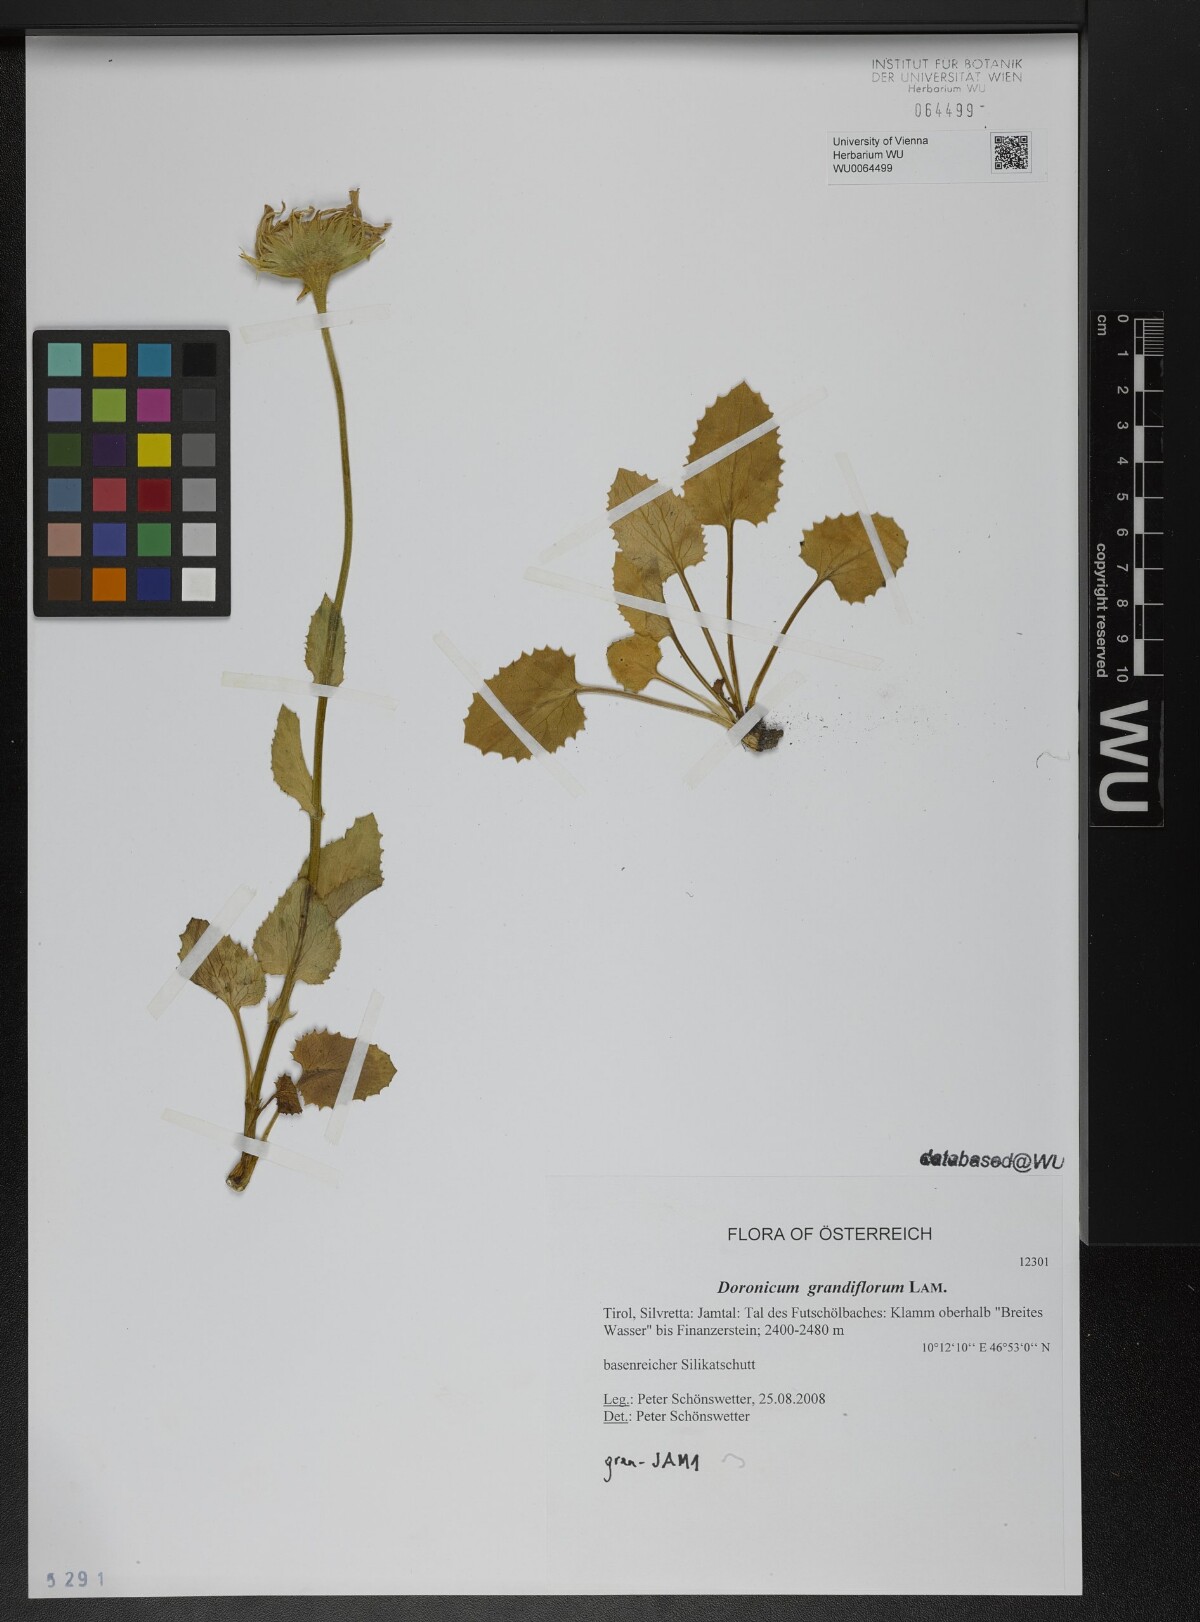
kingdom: Plantae
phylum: Tracheophyta
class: Magnoliopsida
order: Asterales
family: Asteraceae
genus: Doronicum
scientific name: Doronicum grandiflorum
